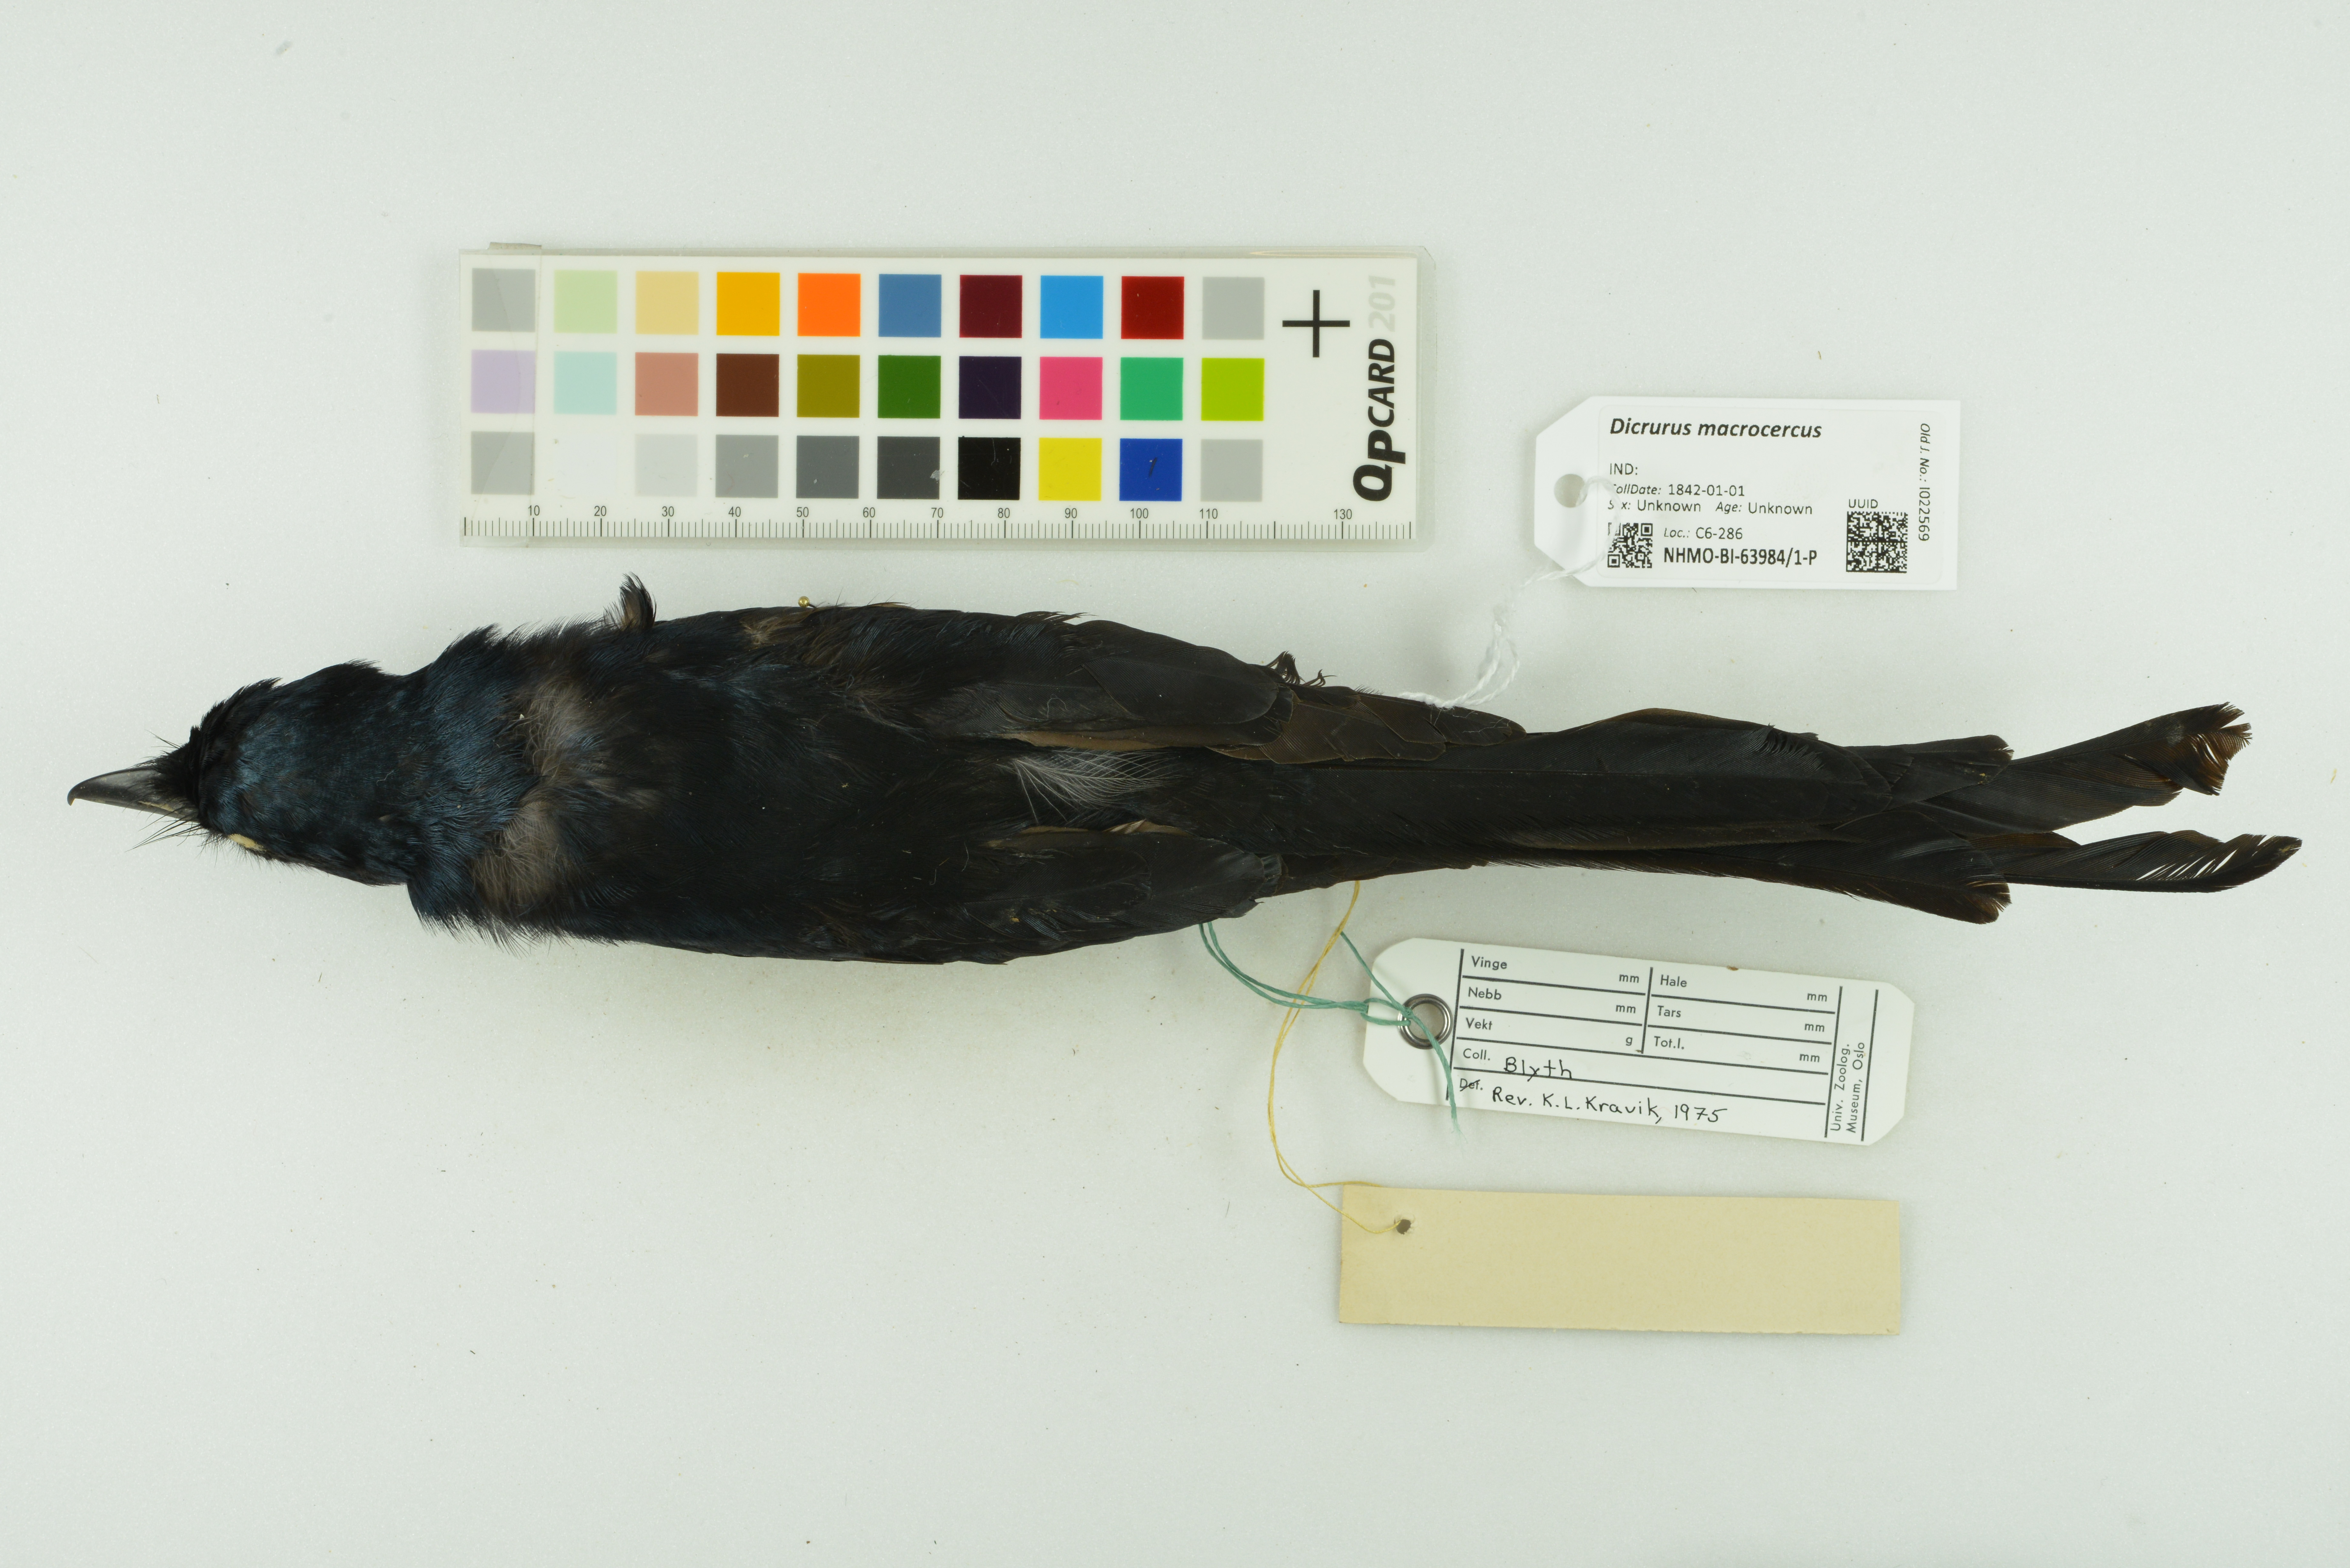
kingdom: Animalia
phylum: Chordata
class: Aves
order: Passeriformes
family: Dicruridae
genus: Dicrurus
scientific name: Dicrurus macrocercus
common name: Black drongo
